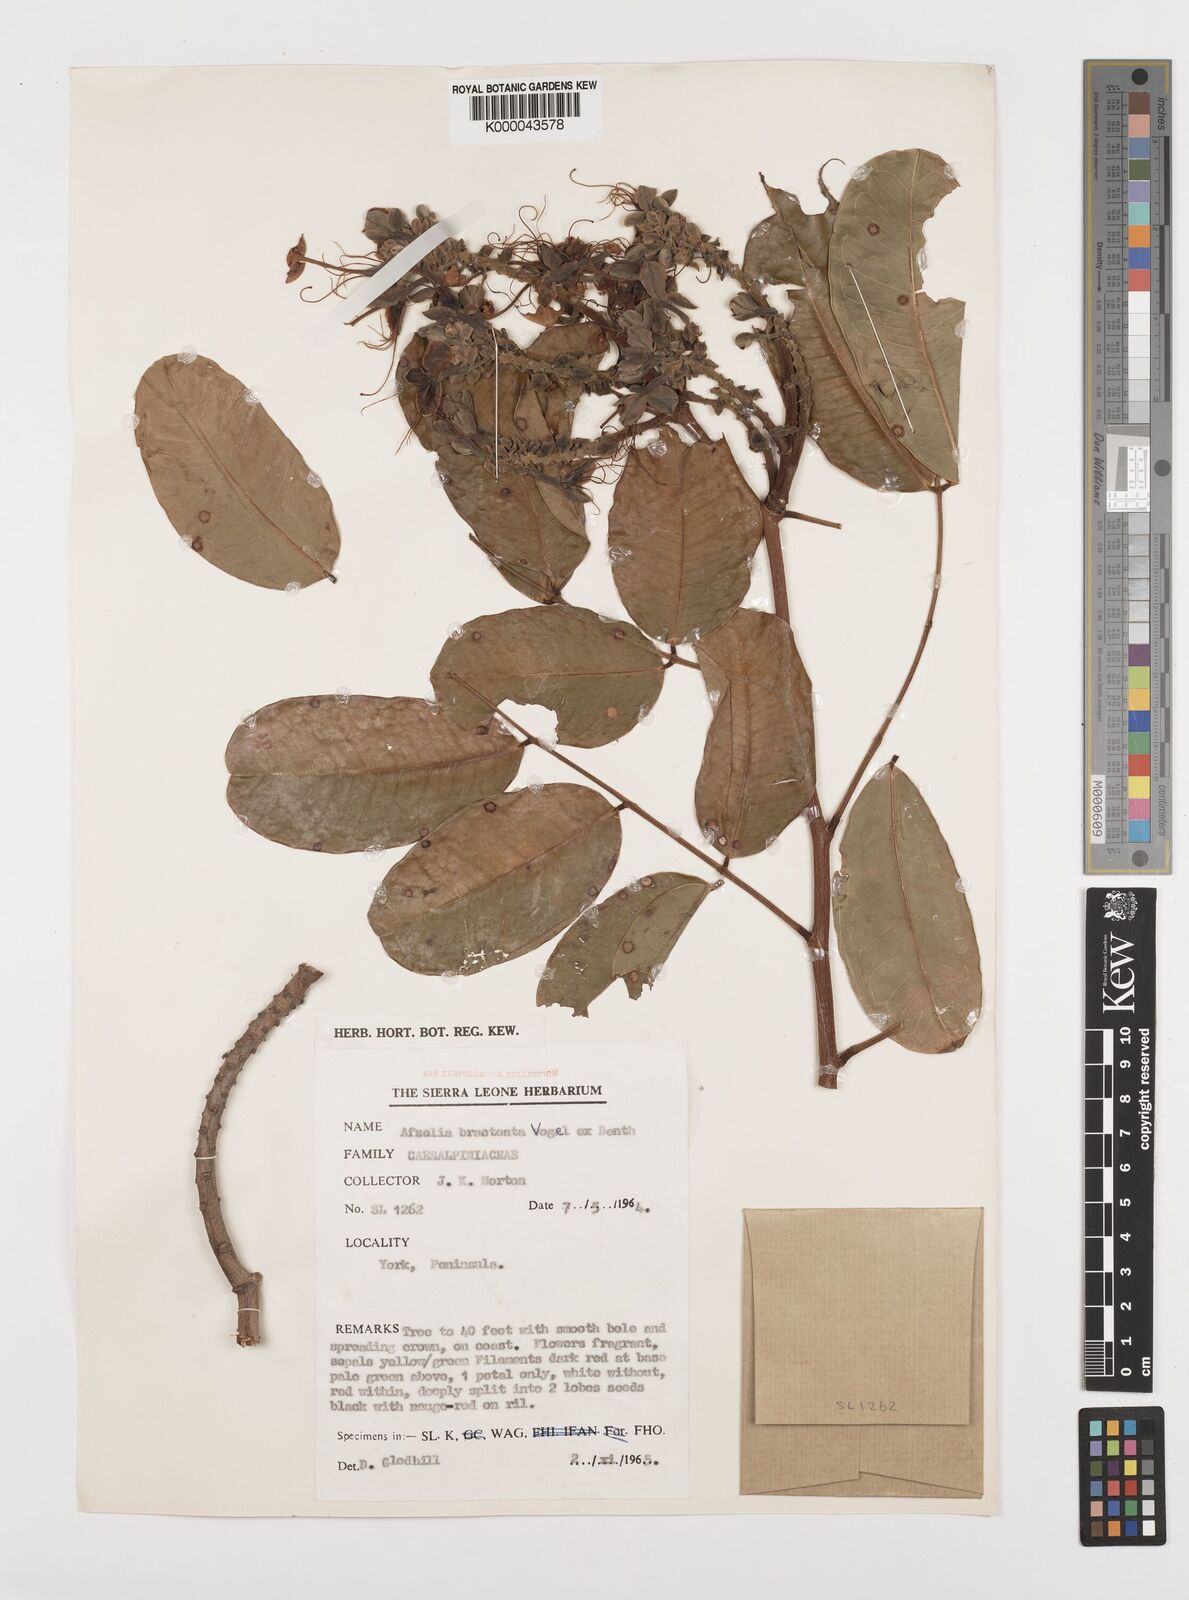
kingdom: Plantae
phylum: Tracheophyta
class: Magnoliopsida
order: Fabales
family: Fabaceae
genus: Afzelia
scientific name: Afzelia
